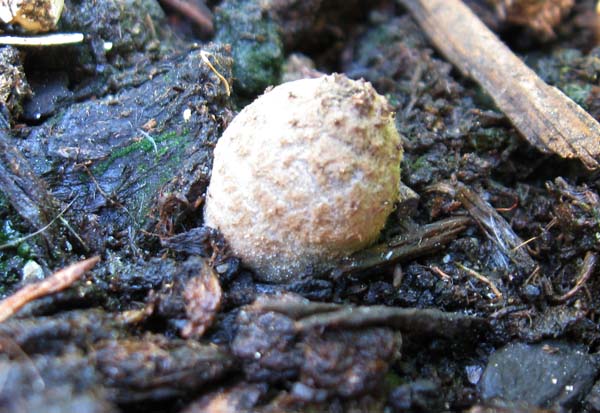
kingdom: Fungi
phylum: Basidiomycota
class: Agaricomycetes
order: Agaricales
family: Psathyrellaceae
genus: Coprinopsis
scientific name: Coprinopsis tuberosa
